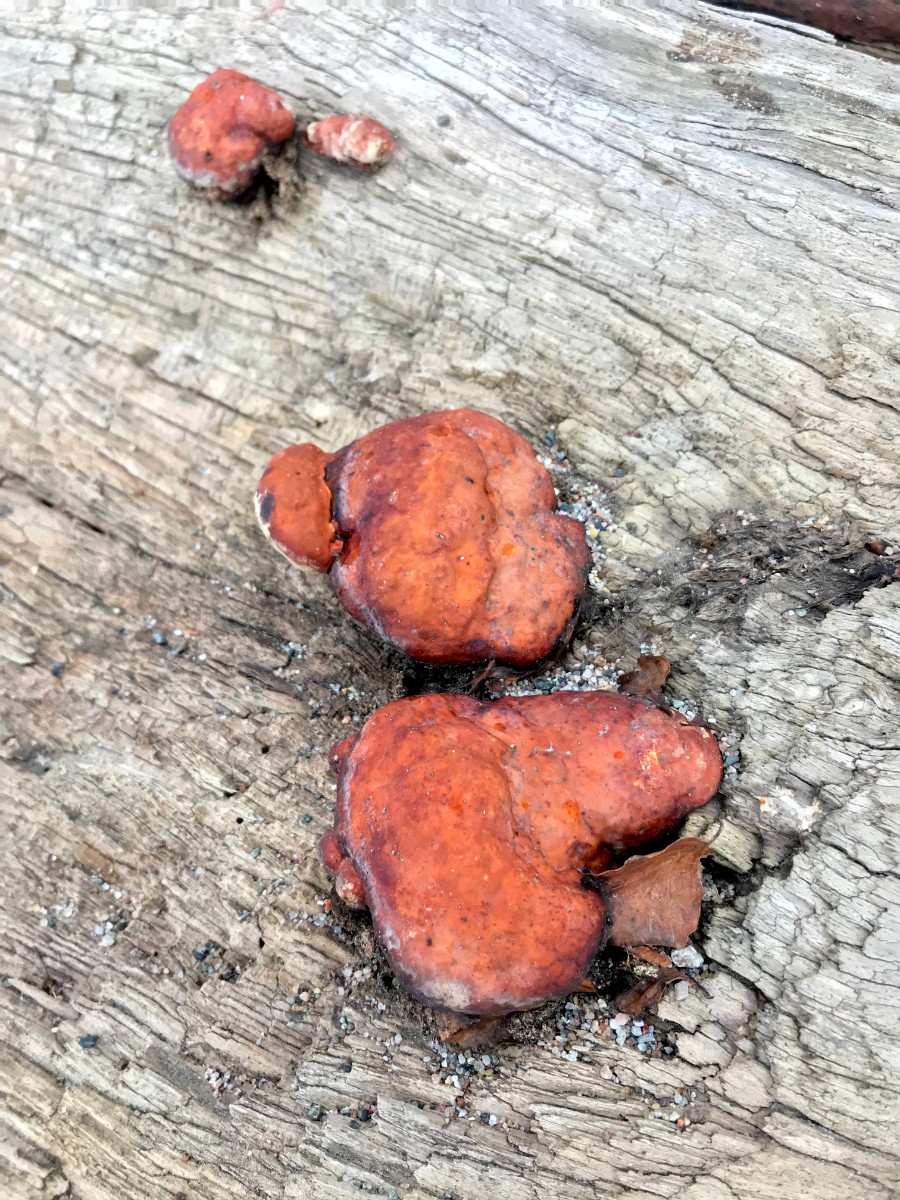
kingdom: Fungi
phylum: Basidiomycota
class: Agaricomycetes
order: Polyporales
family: Fomitopsidaceae
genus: Fomitopsis
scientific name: Fomitopsis pinicola
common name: randbæltet hovporesvamp
